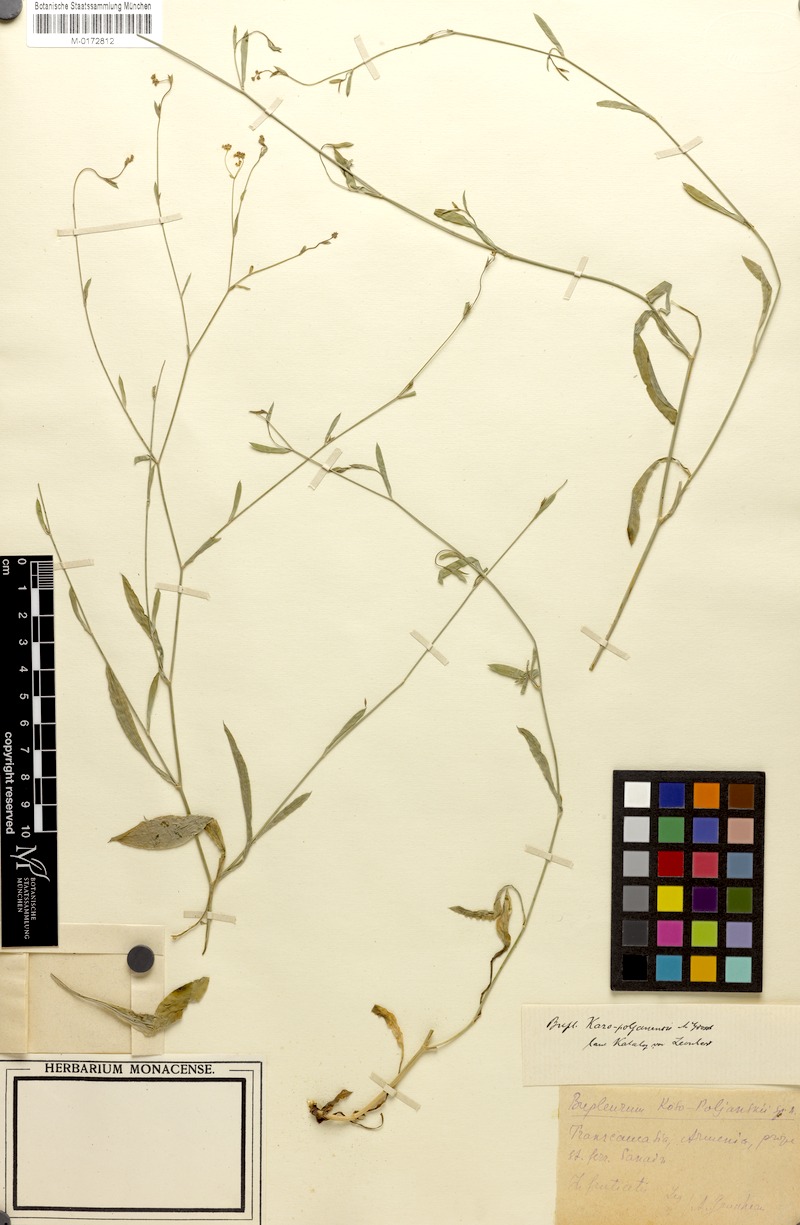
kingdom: Plantae
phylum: Tracheophyta
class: Magnoliopsida
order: Apiales
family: Apiaceae
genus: Bupleurum
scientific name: Bupleurum kosopolianskyi
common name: Kozo-poljanskyi's thoroughwax
